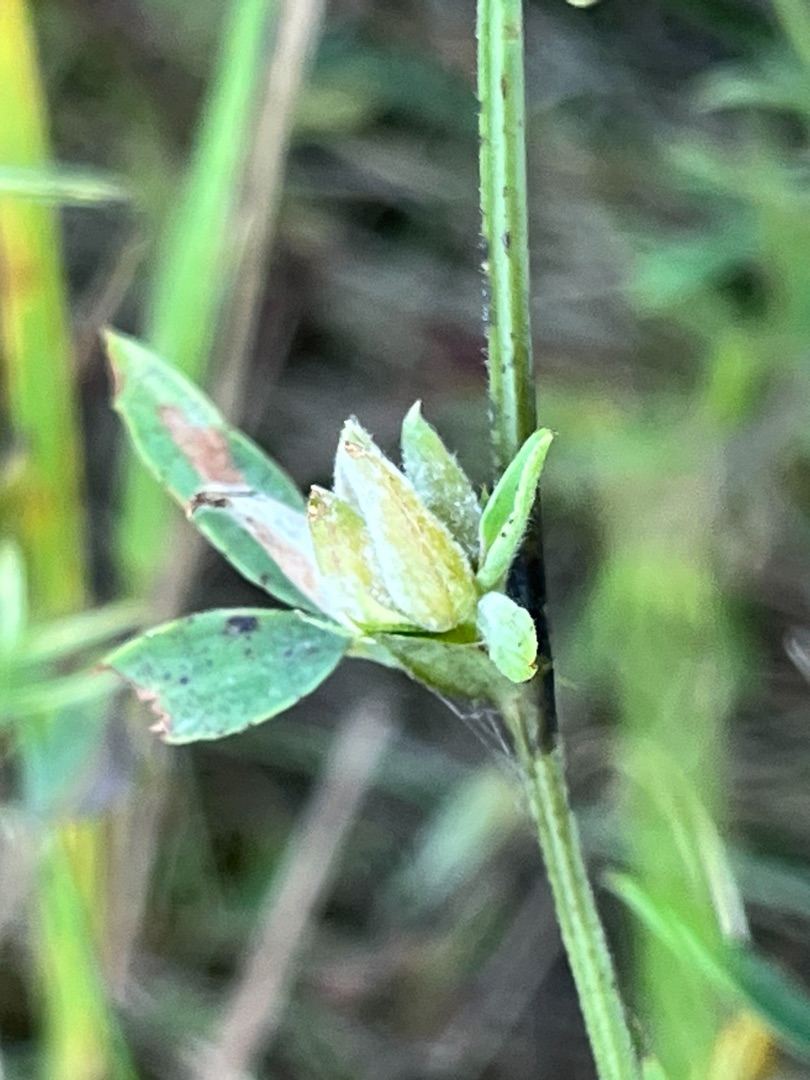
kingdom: Animalia
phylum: Arthropoda
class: Insecta
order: Diptera
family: Cecidomyiidae
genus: Dasineura
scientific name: Dasineura lathyri
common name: Fladbælgbladgalmyg
